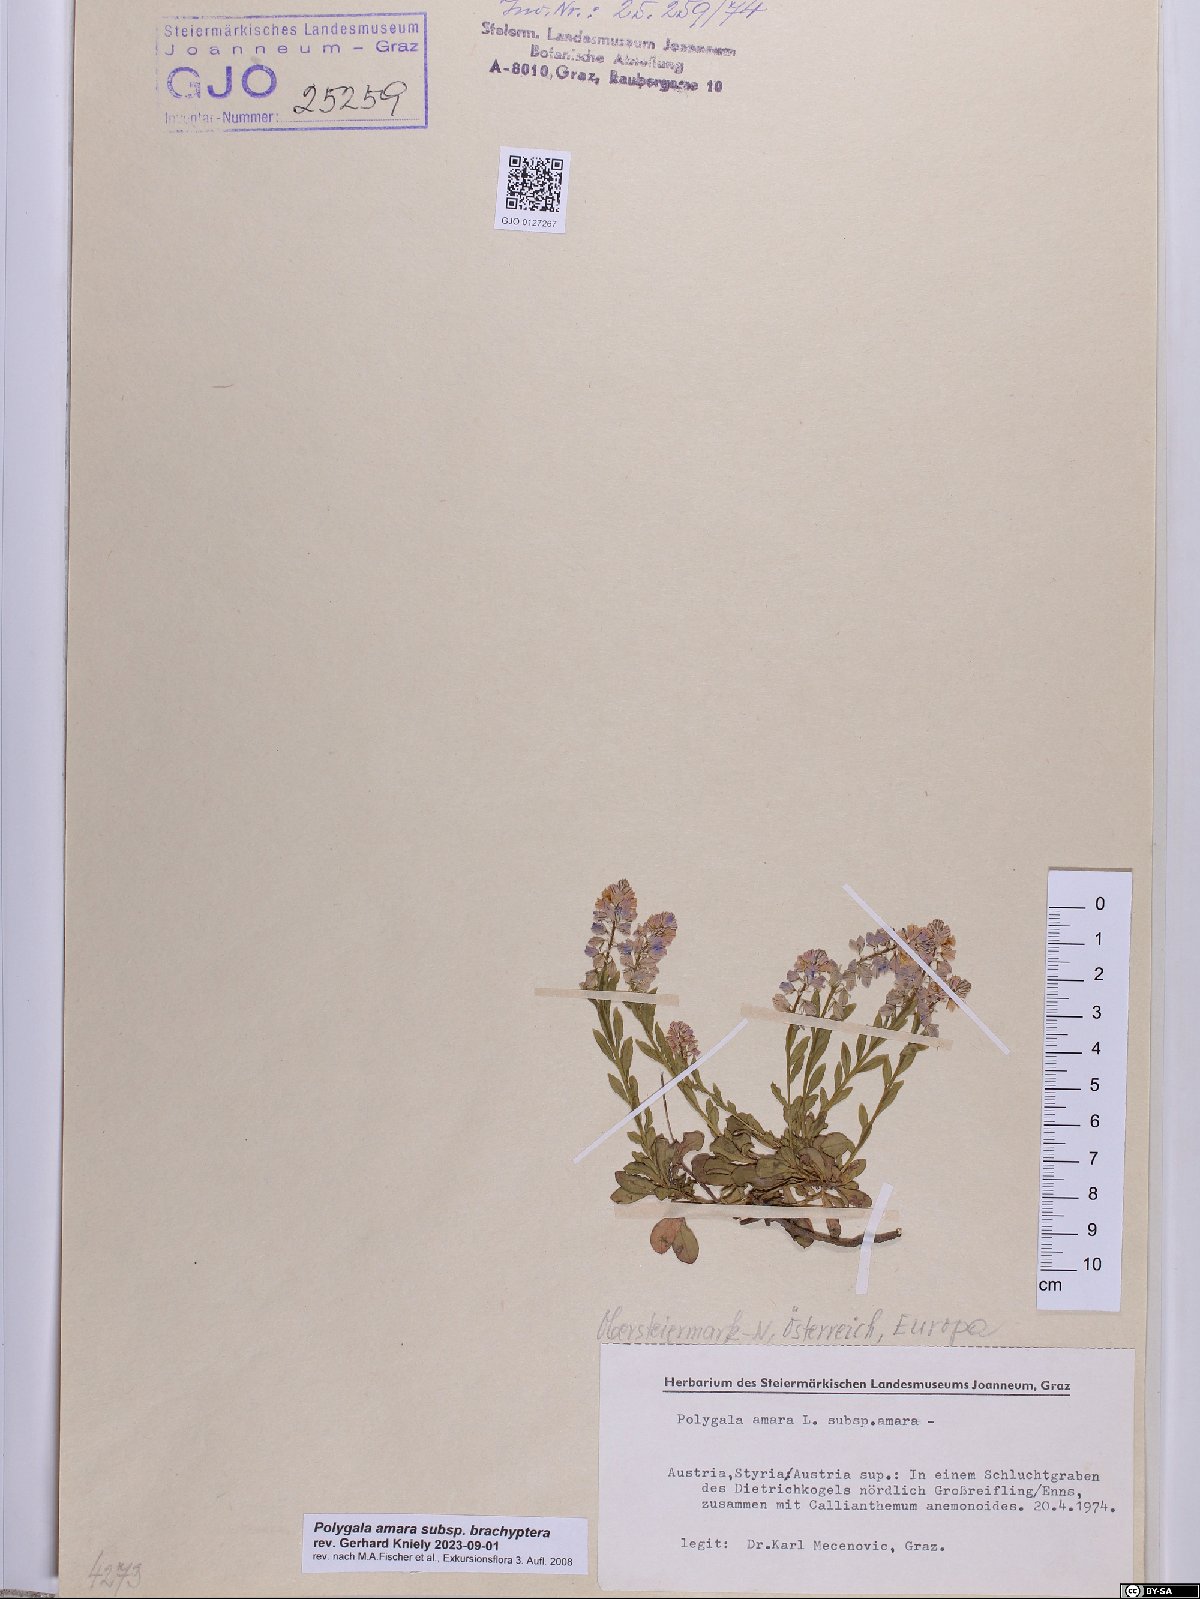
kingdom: Plantae
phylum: Tracheophyta
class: Magnoliopsida
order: Fabales
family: Polygalaceae
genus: Polygala
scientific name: Polygala amara
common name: Milkwort
